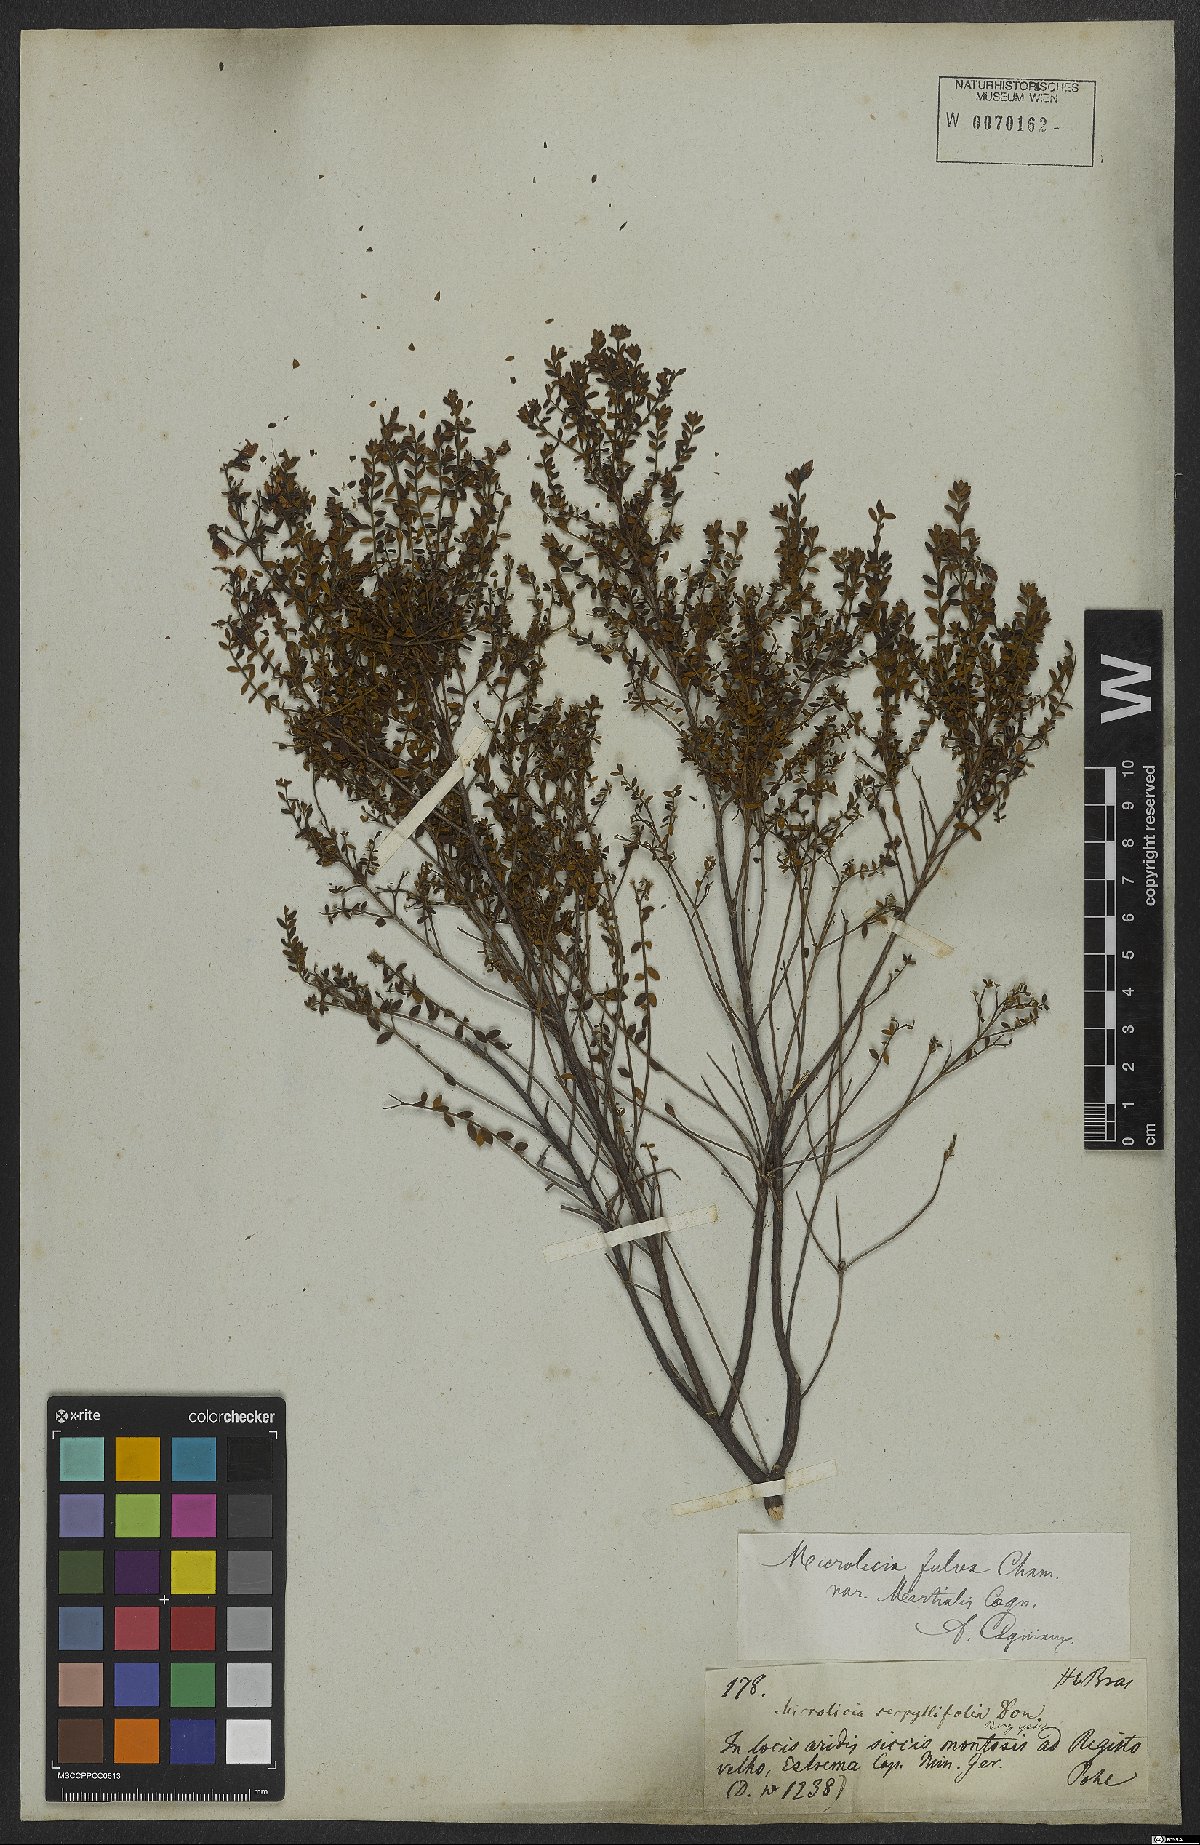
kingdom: Plantae
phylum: Tracheophyta
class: Magnoliopsida
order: Myrtales
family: Melastomataceae
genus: Microlicia
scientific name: Microlicia fulva
